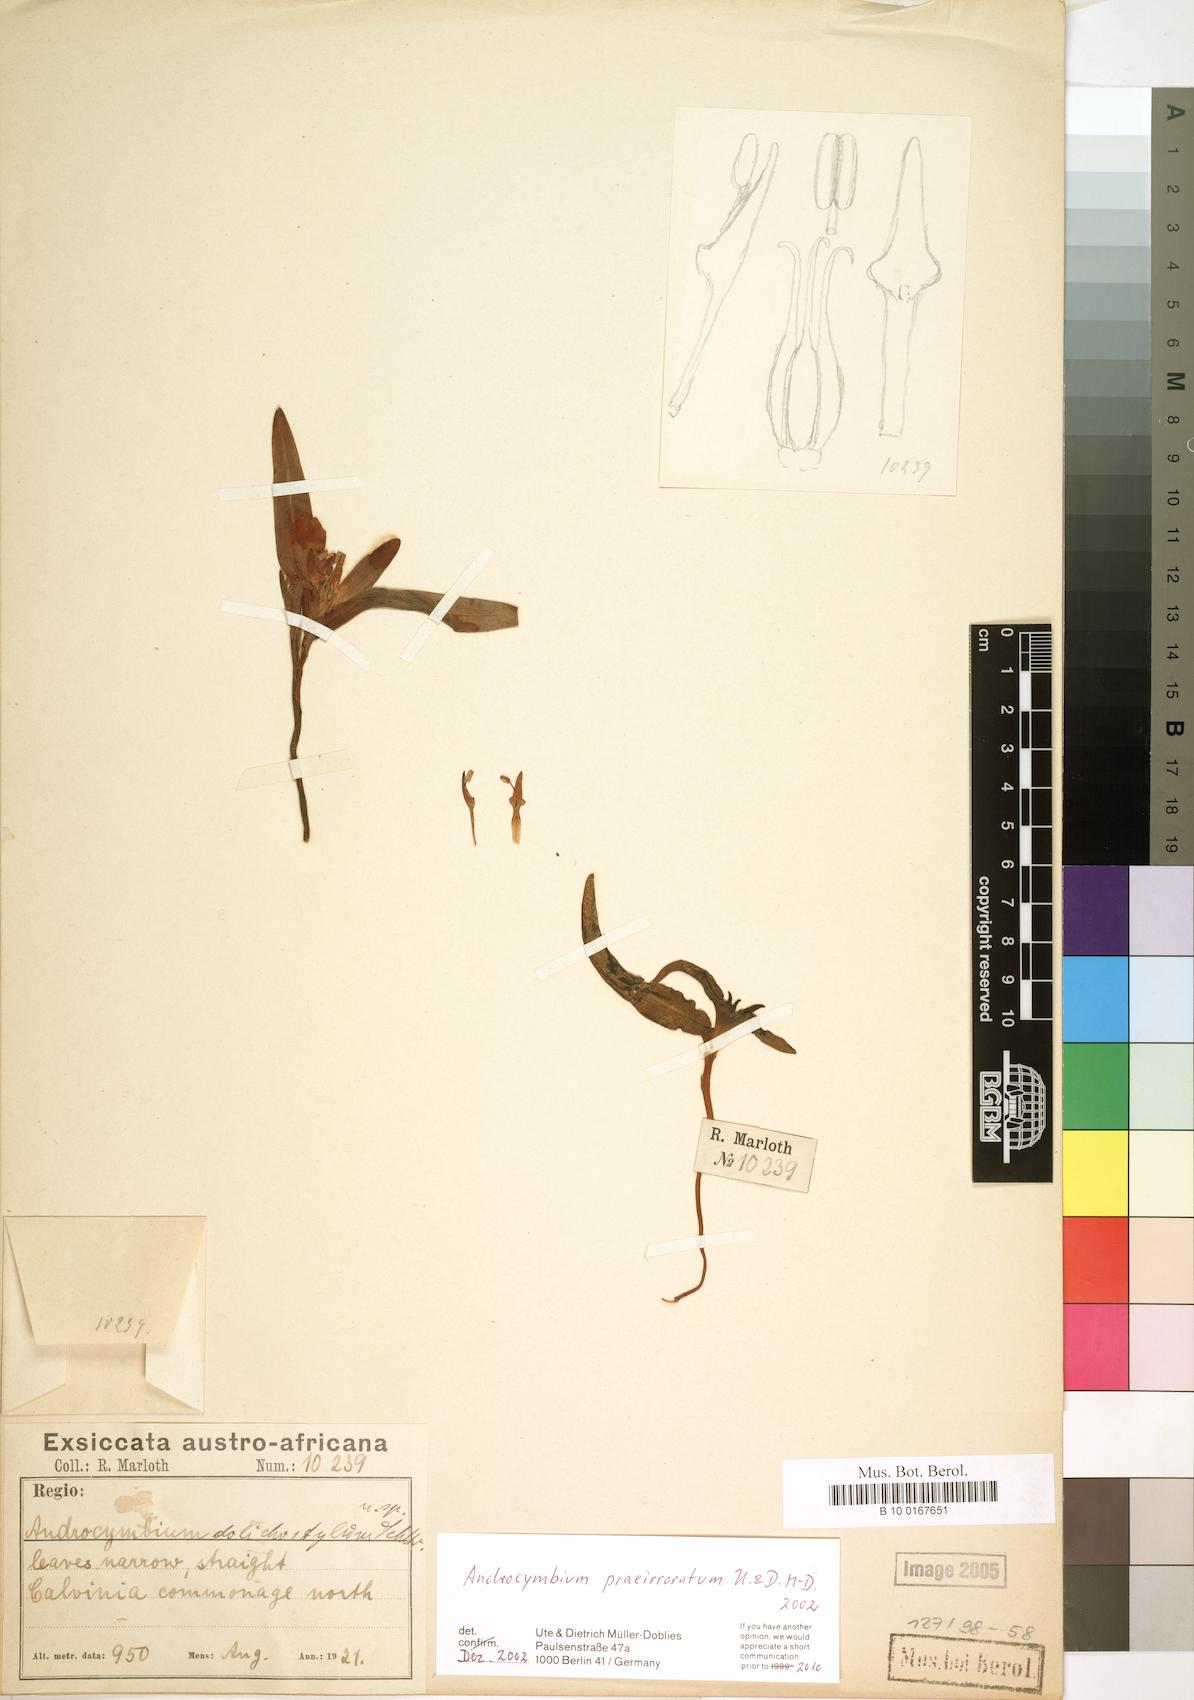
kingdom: Plantae
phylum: Tracheophyta
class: Liliopsida
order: Liliales
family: Colchicaceae
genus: Colchicum
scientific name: Colchicum praeirroratum
